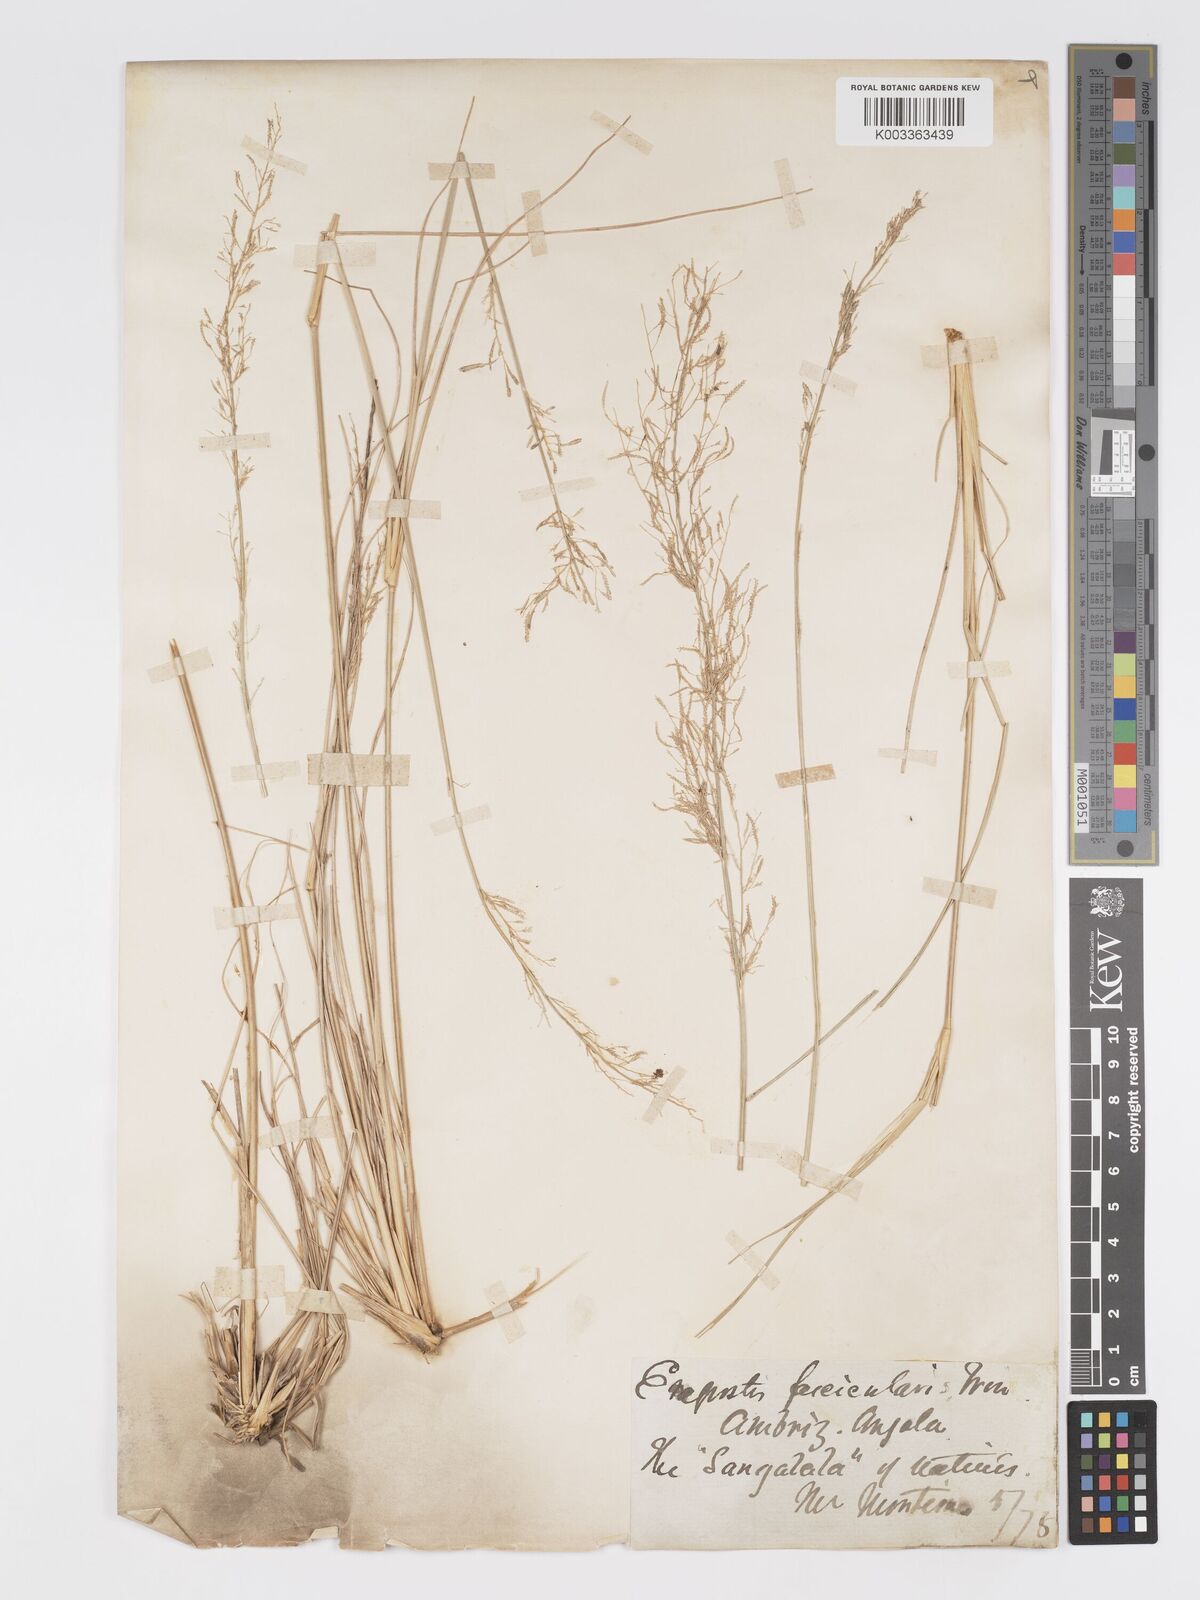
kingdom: Plantae
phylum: Tracheophyta
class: Liliopsida
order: Poales
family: Poaceae
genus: Eragrostis
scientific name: Eragrostis prolifera
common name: Dominican lovegrass
